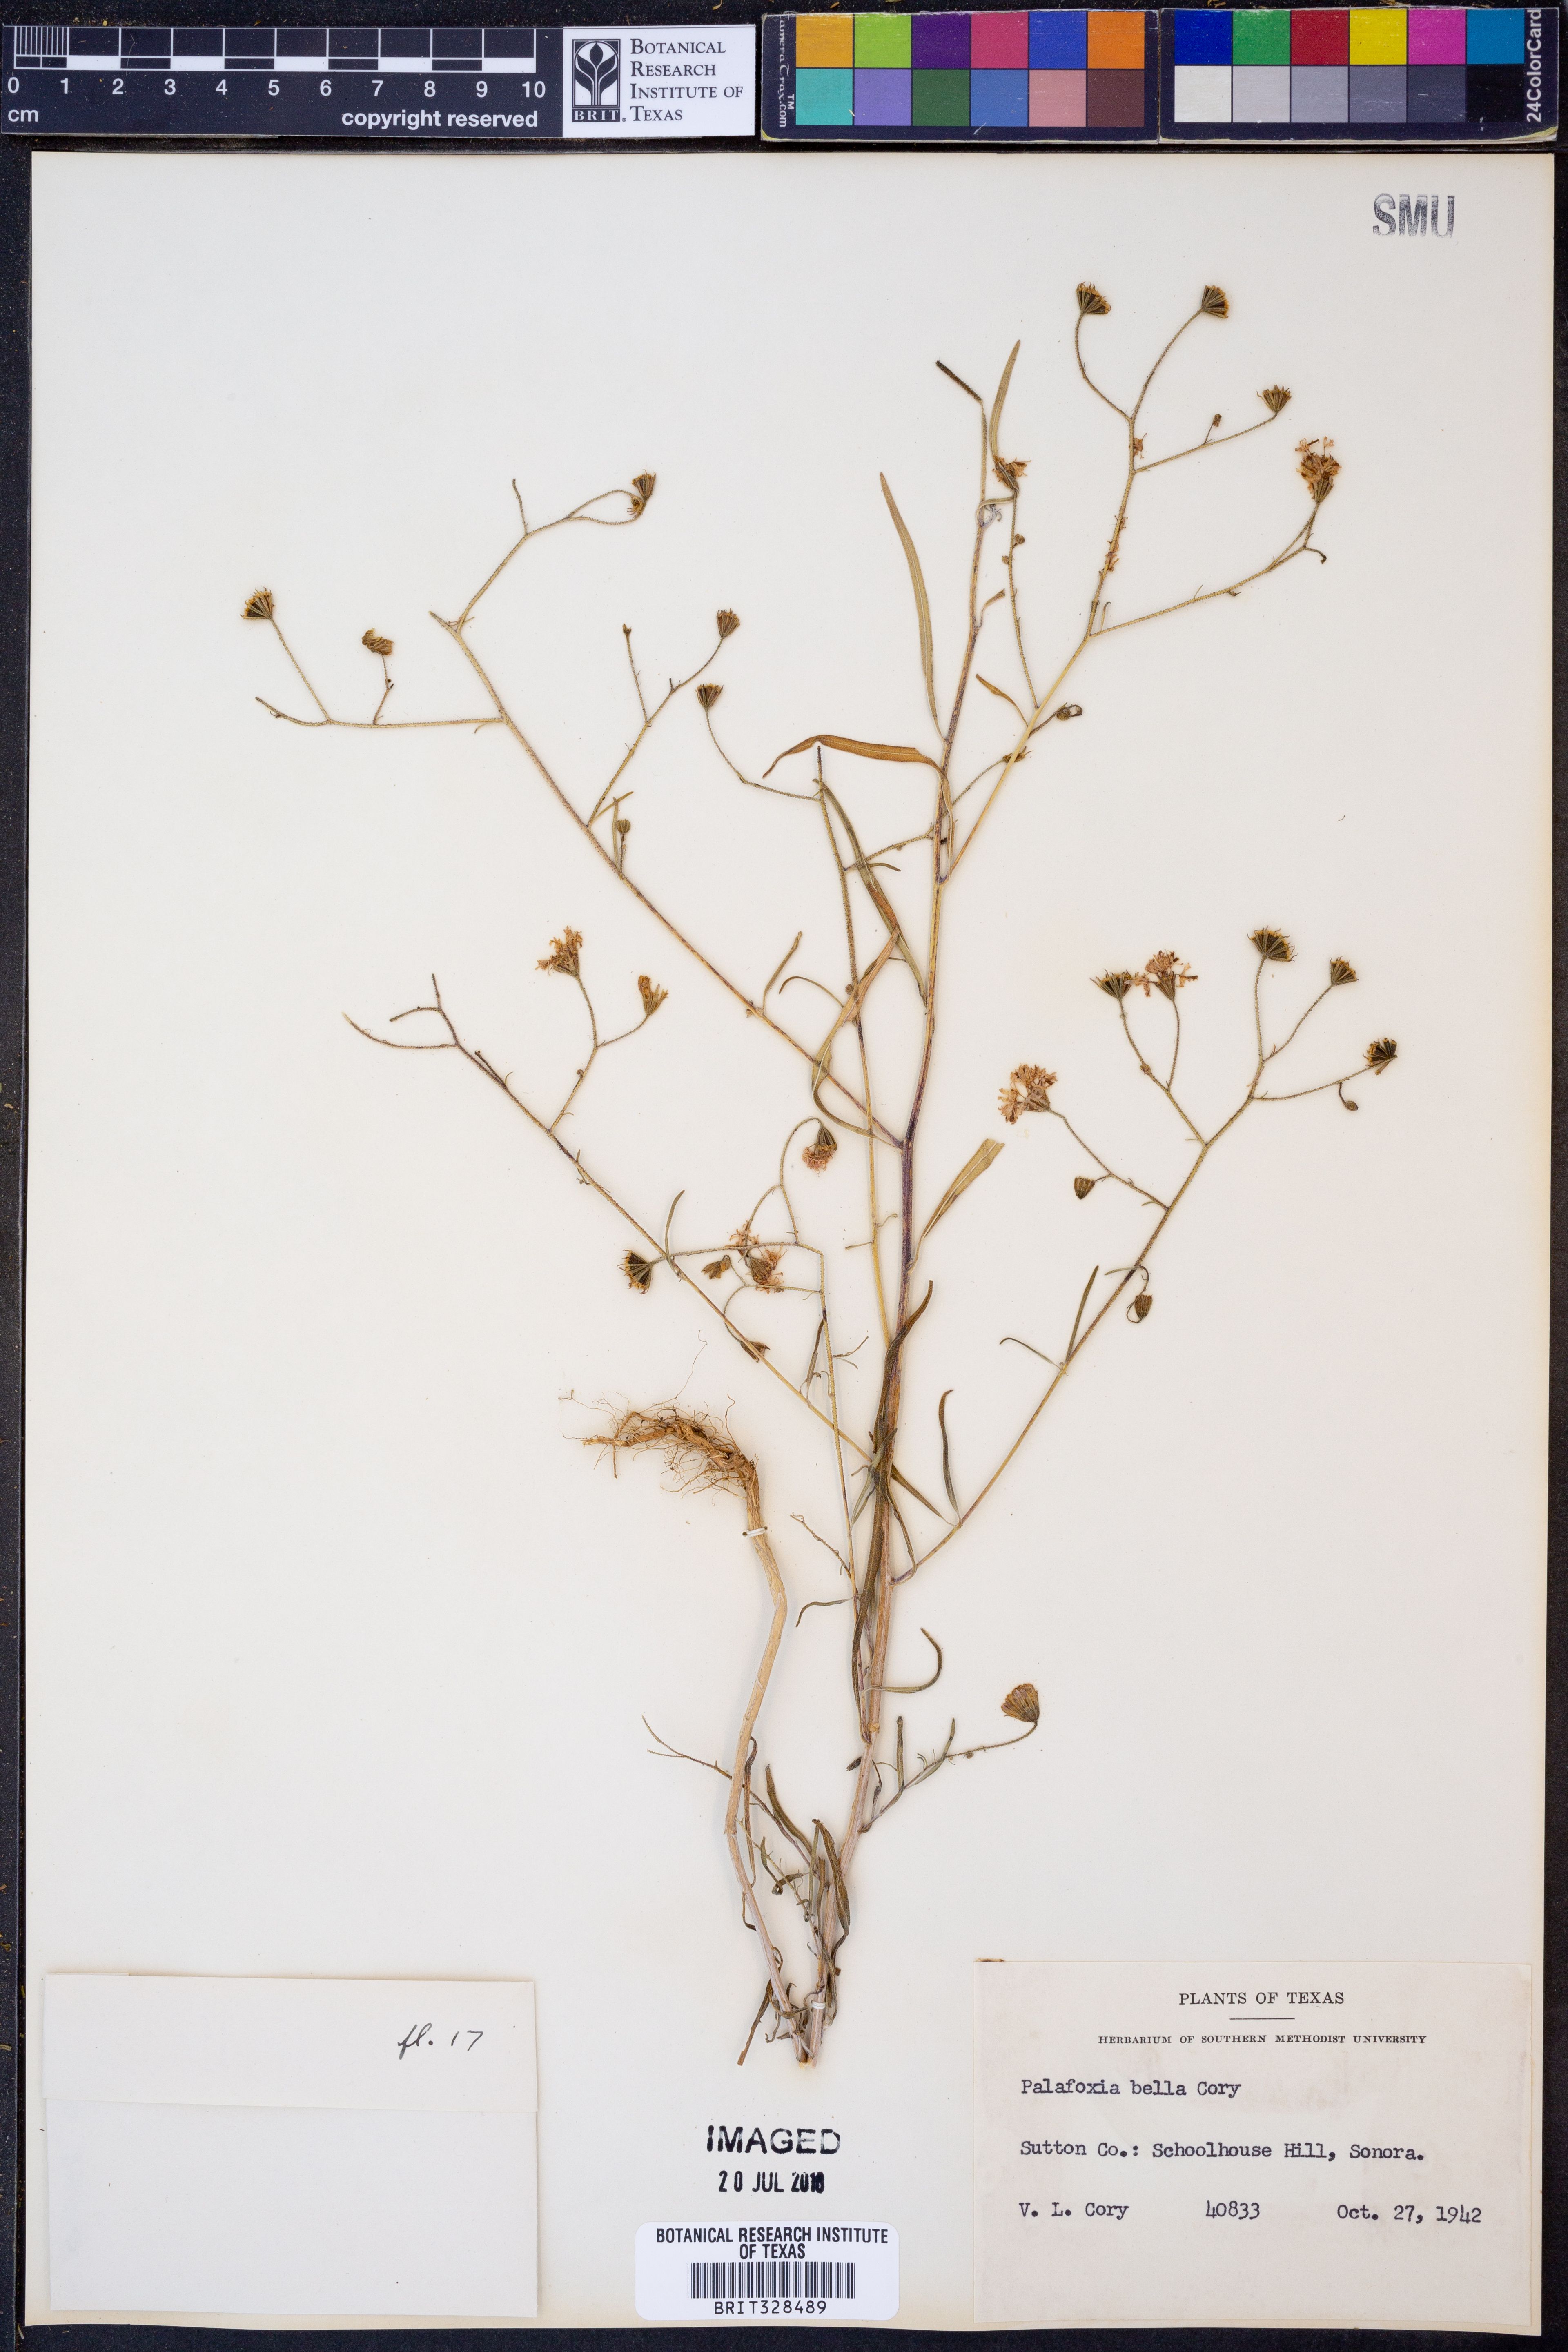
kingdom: Plantae
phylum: Tracheophyta
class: Magnoliopsida
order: Asterales
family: Asteraceae
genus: Palafoxia
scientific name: Palafoxia callosa
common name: Small palafox
